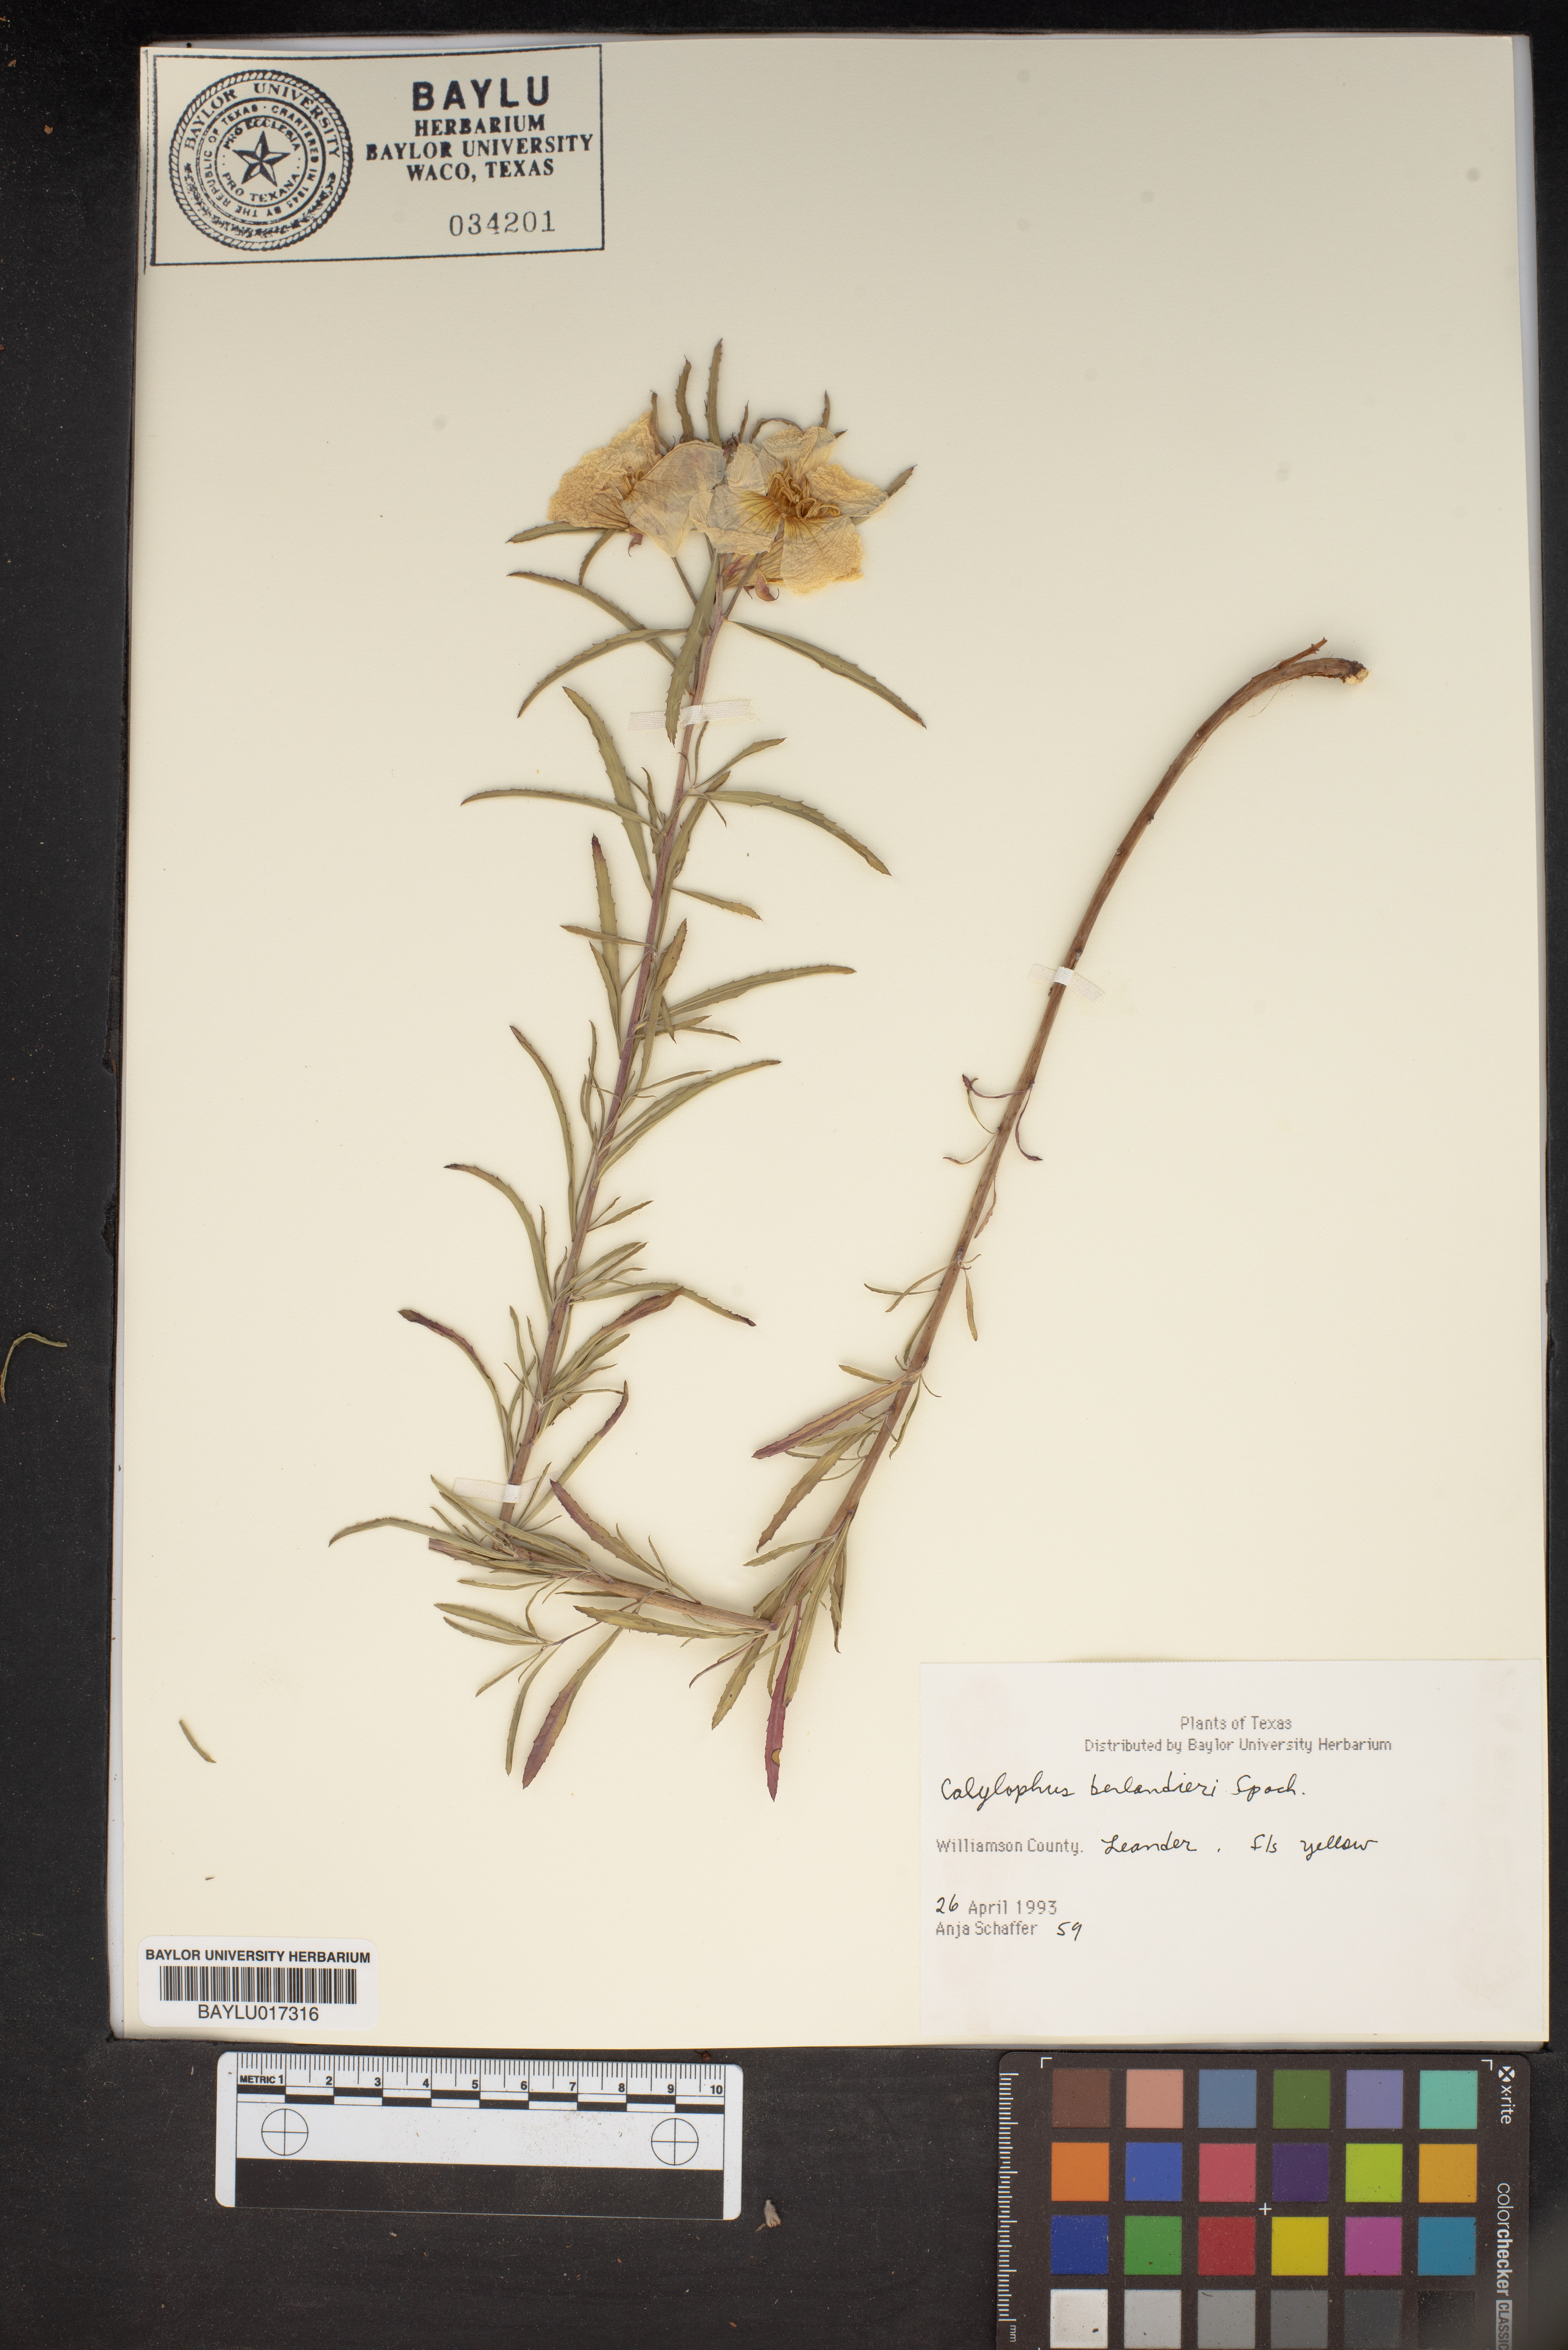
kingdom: Plantae
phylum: Tracheophyta
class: Magnoliopsida
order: Myrtales
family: Onagraceae
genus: Oenothera
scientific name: Oenothera capillifolia
